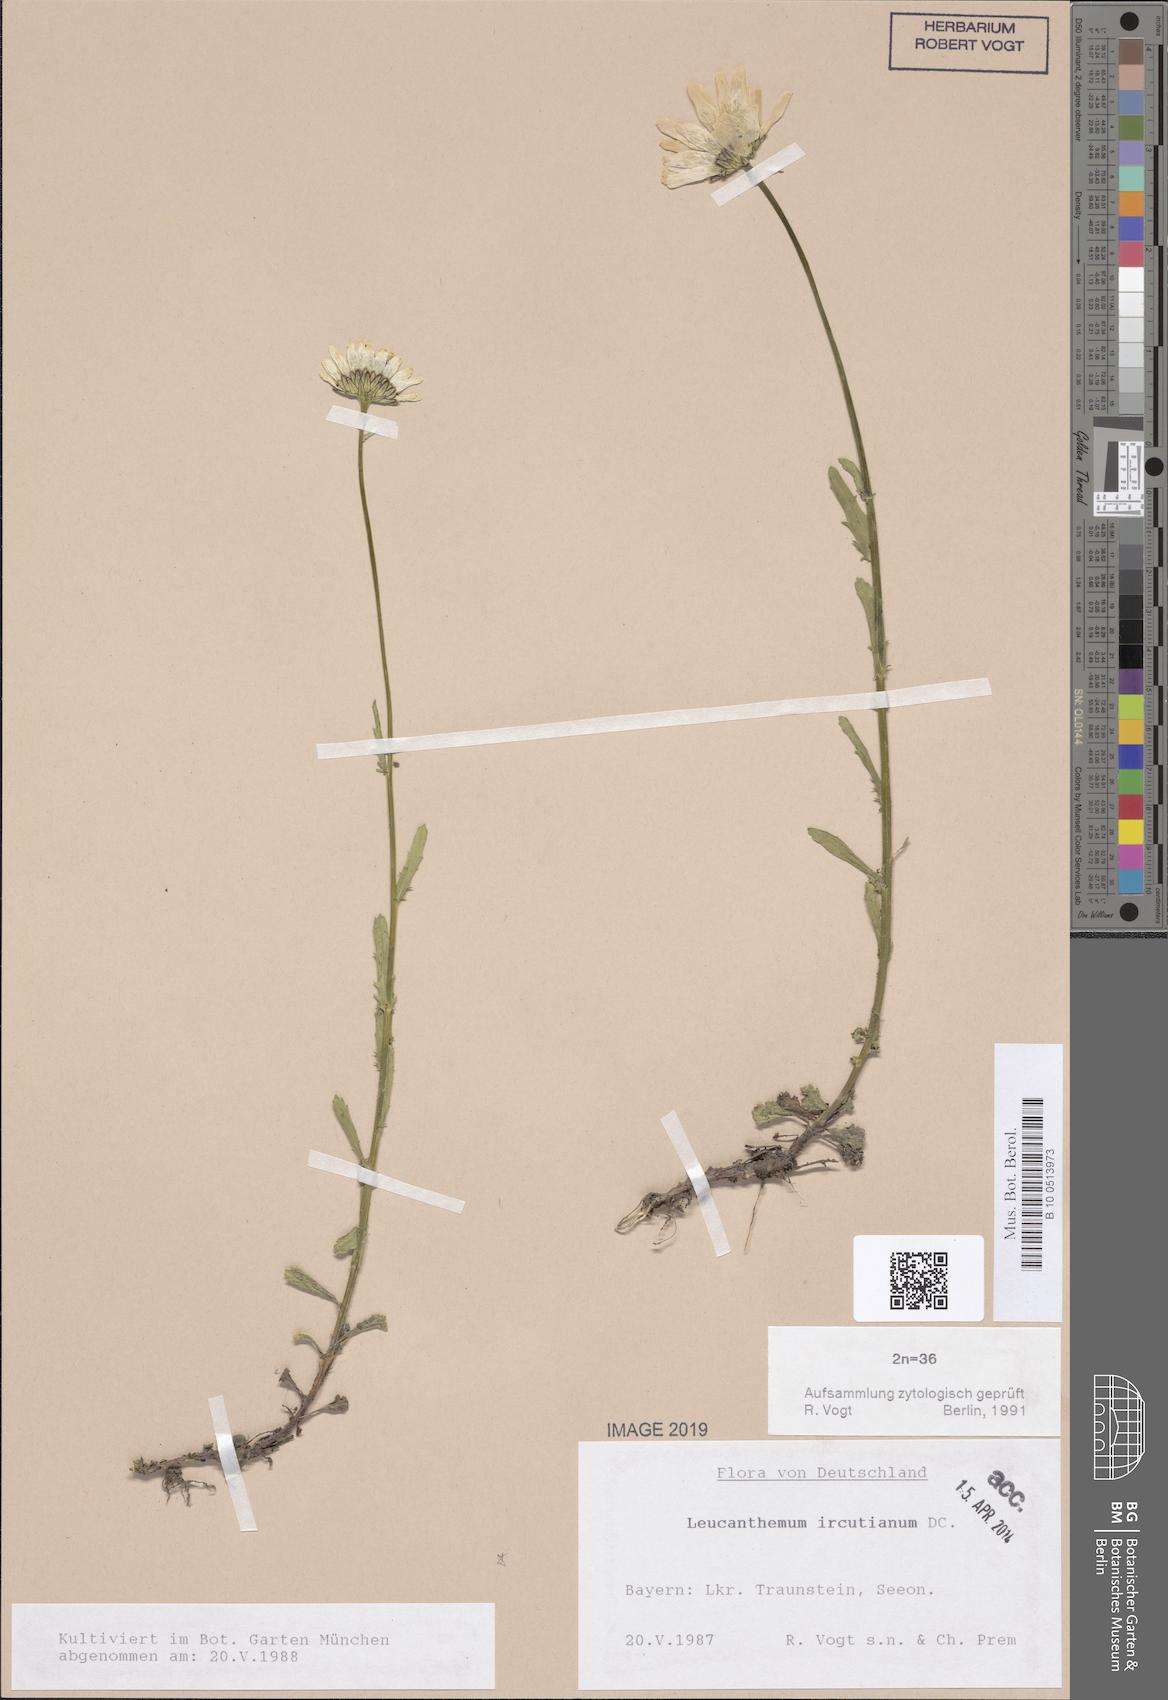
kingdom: Plantae
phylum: Tracheophyta
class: Magnoliopsida
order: Asterales
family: Asteraceae
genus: Leucanthemum
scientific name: Leucanthemum ircutianum
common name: Daisy
